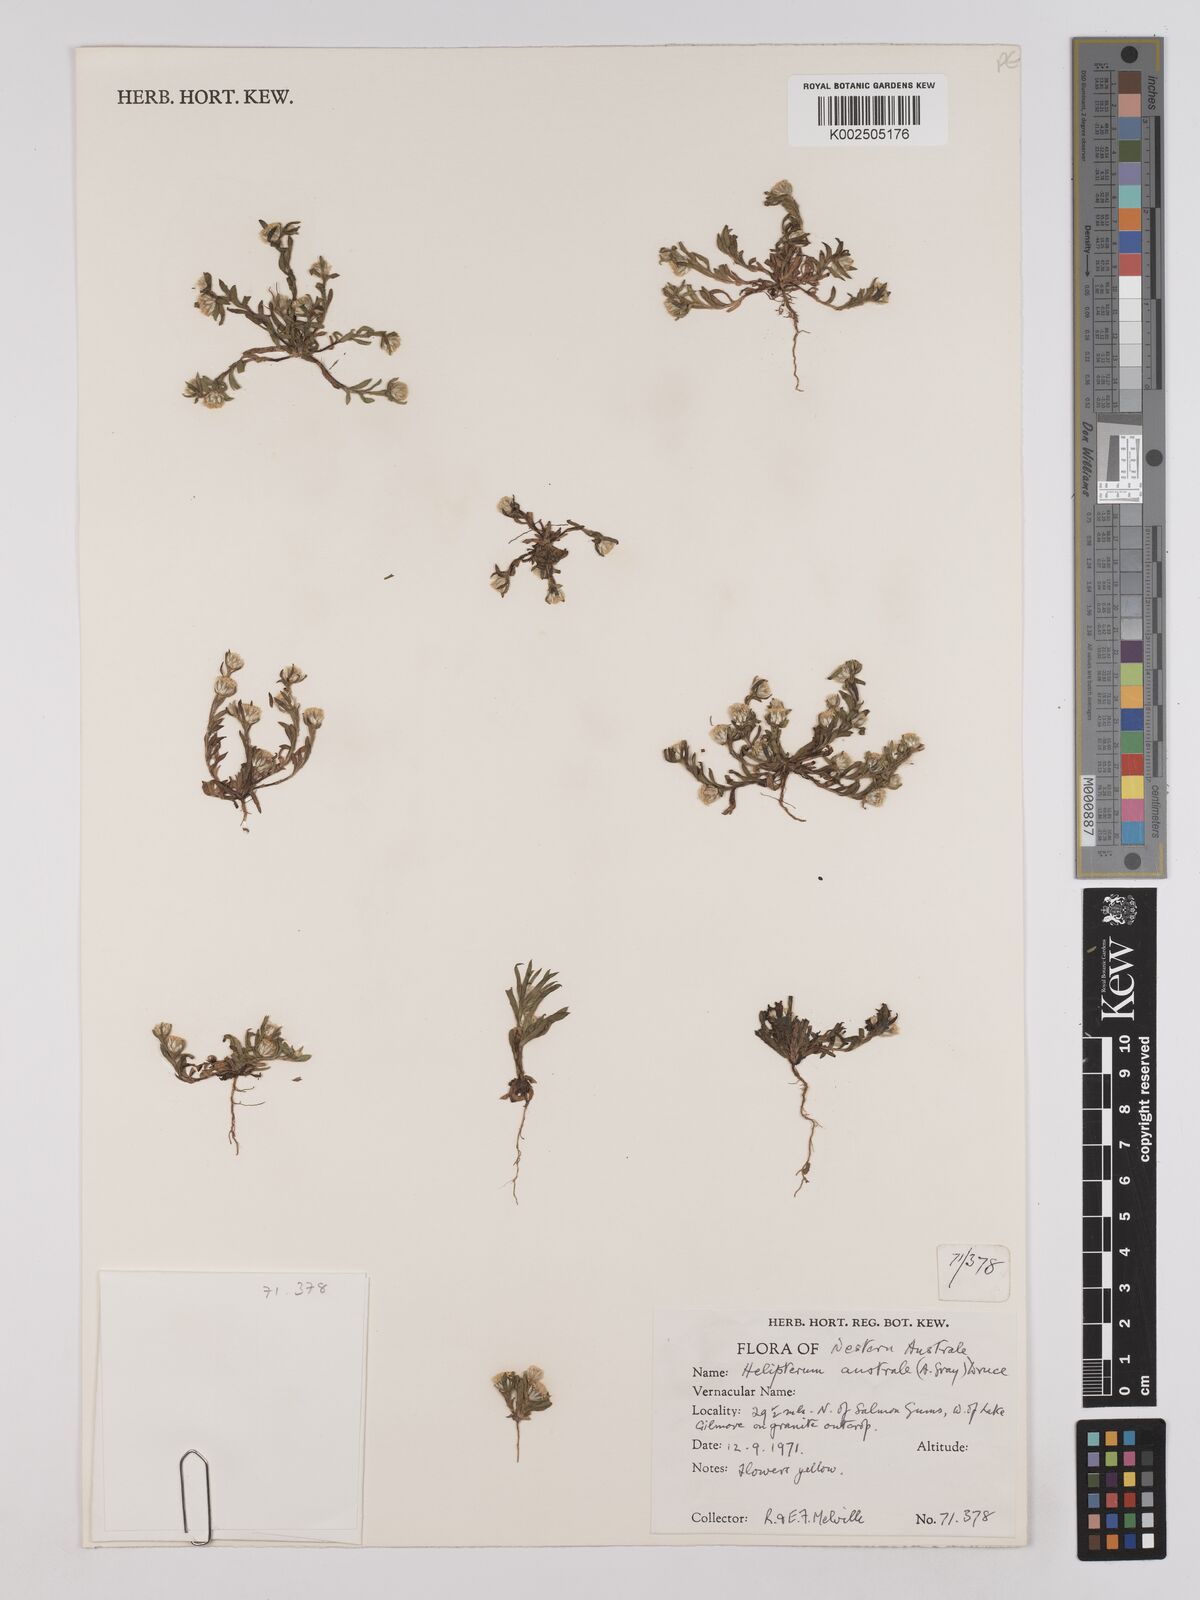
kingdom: Plantae
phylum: Tracheophyta
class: Magnoliopsida
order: Asterales
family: Asteraceae
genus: Triptilodiscus
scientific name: Triptilodiscus pygmaeus
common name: Common sunray
